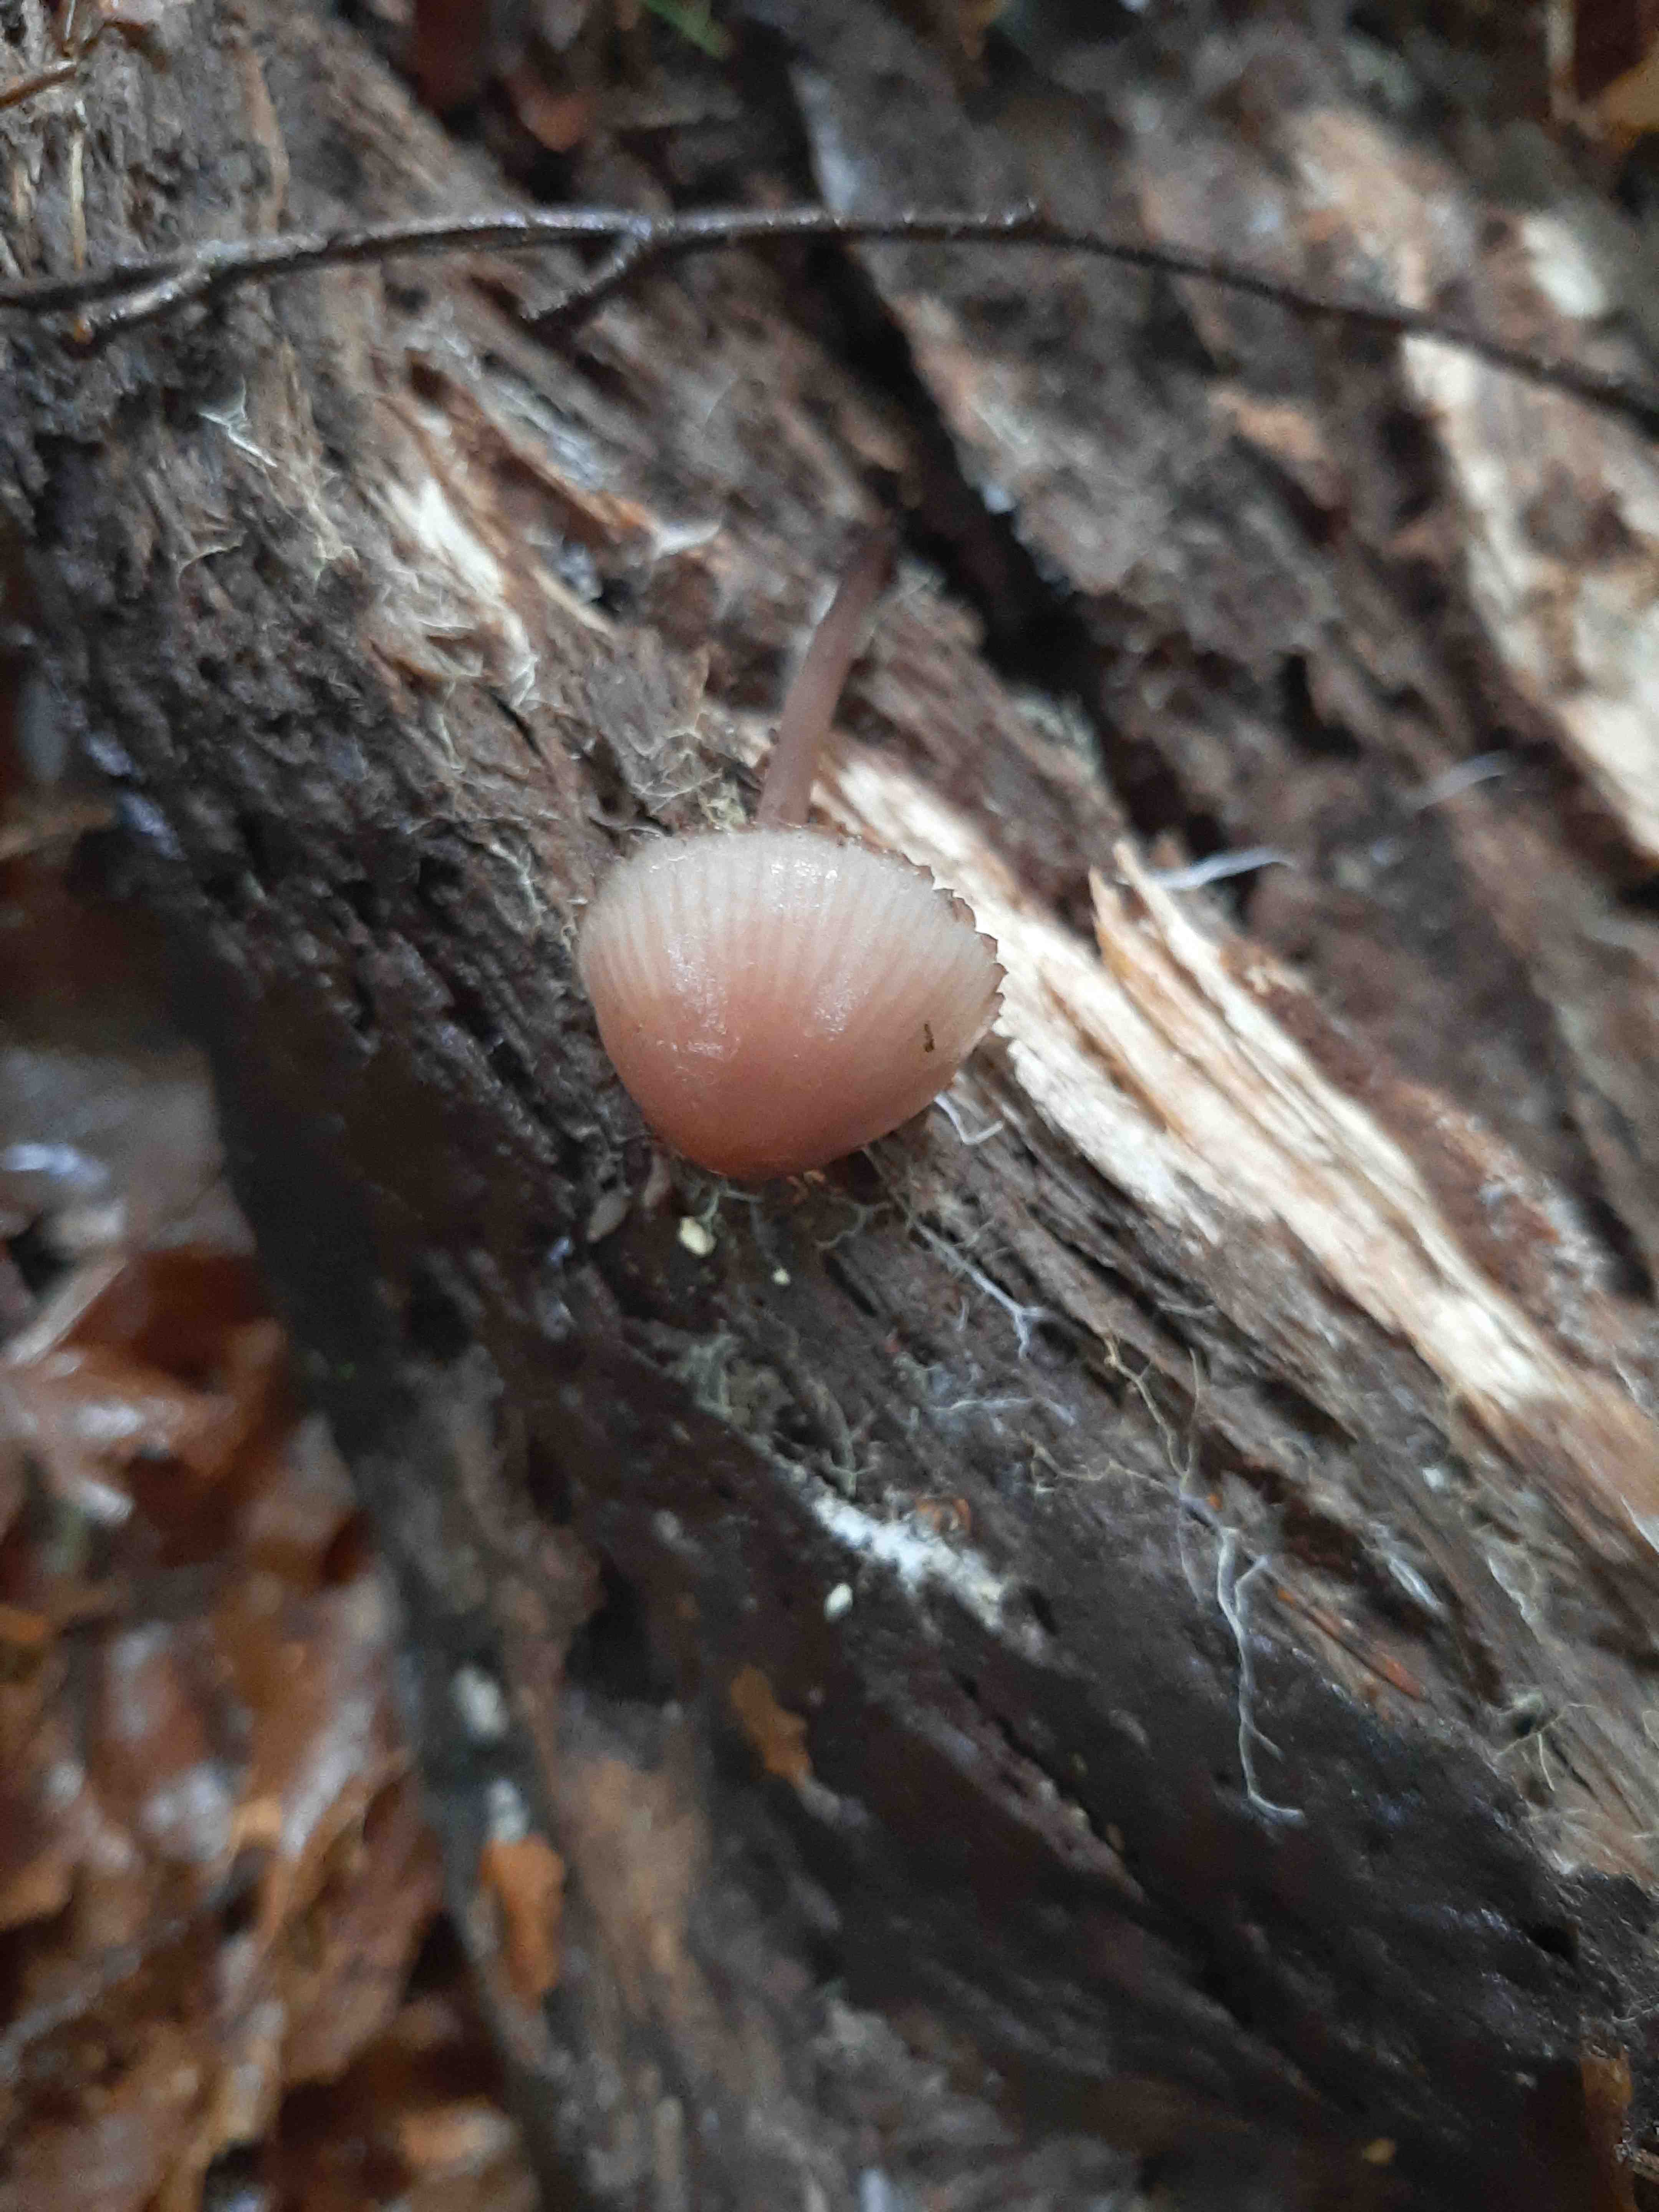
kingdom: Fungi
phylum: Basidiomycota
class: Agaricomycetes
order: Agaricales
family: Mycenaceae
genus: Mycena
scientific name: Mycena haematopus
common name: blødende huesvamp
